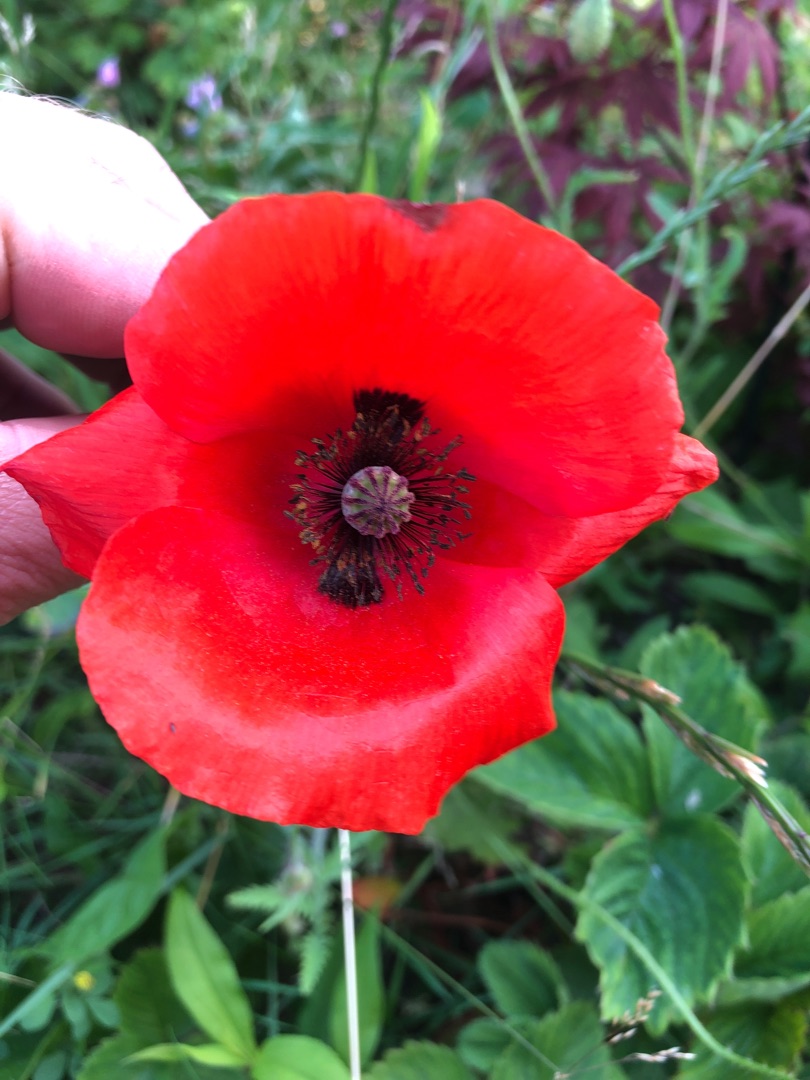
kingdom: Plantae
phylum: Tracheophyta
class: Magnoliopsida
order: Ranunculales
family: Papaveraceae
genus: Papaver
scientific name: Papaver rhoeas
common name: Korn-valmue
